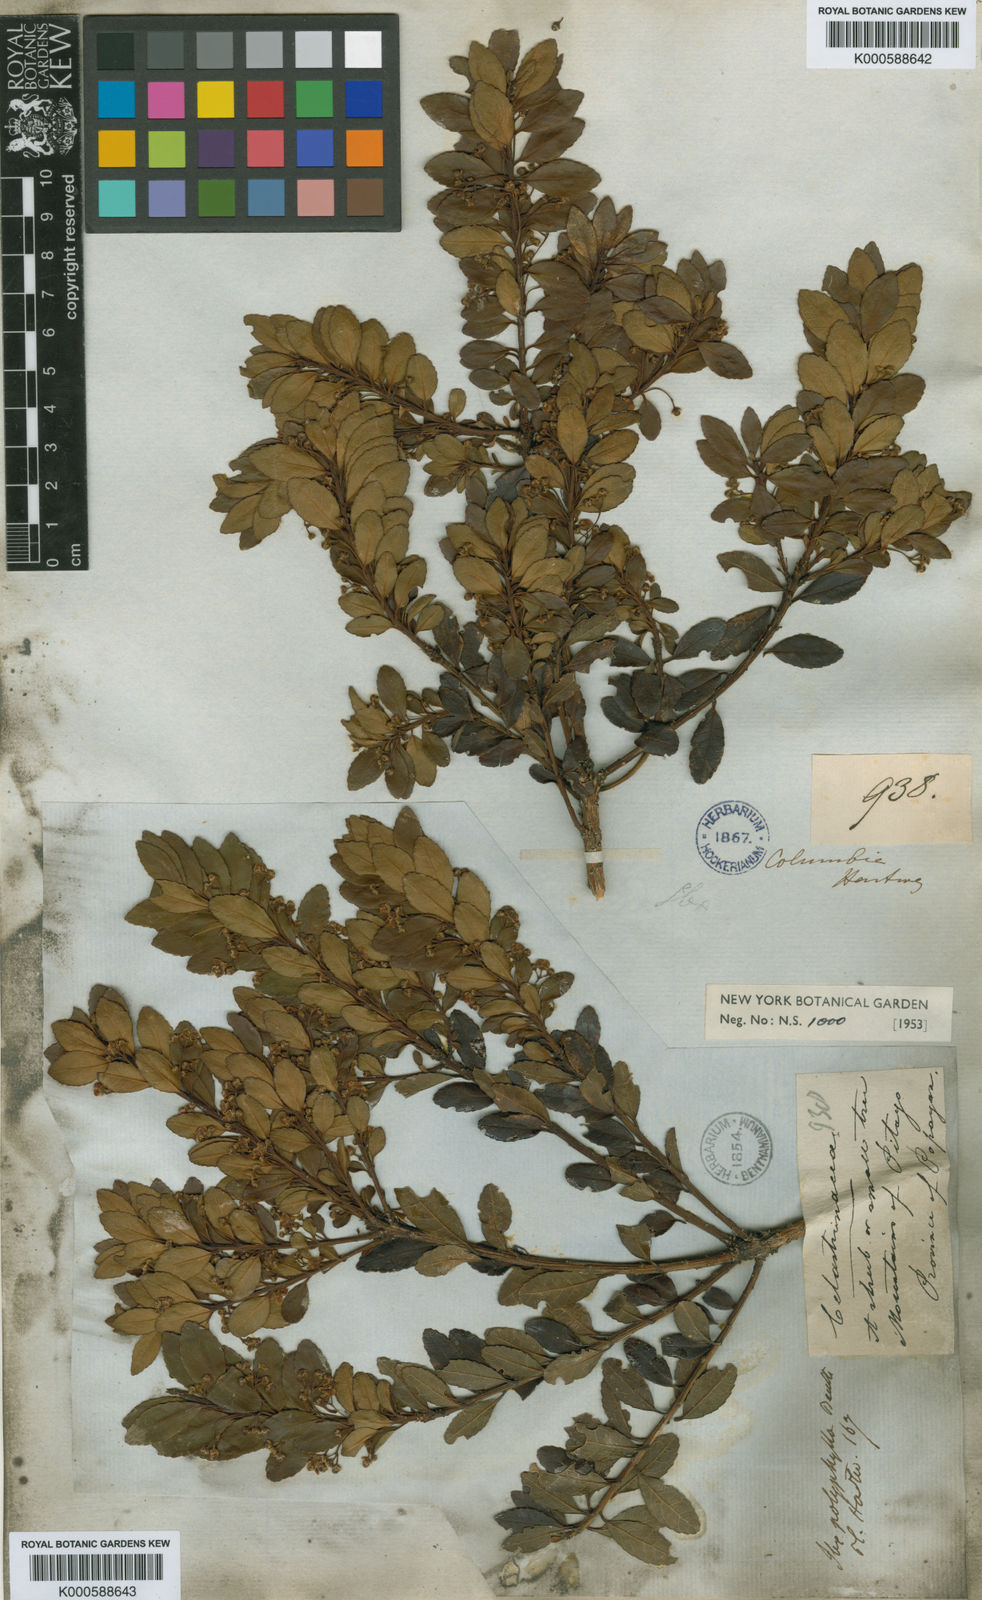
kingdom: Plantae
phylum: Tracheophyta
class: Magnoliopsida
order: Aquifoliales
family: Aquifoliaceae
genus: Ilex
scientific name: Ilex myricoides
